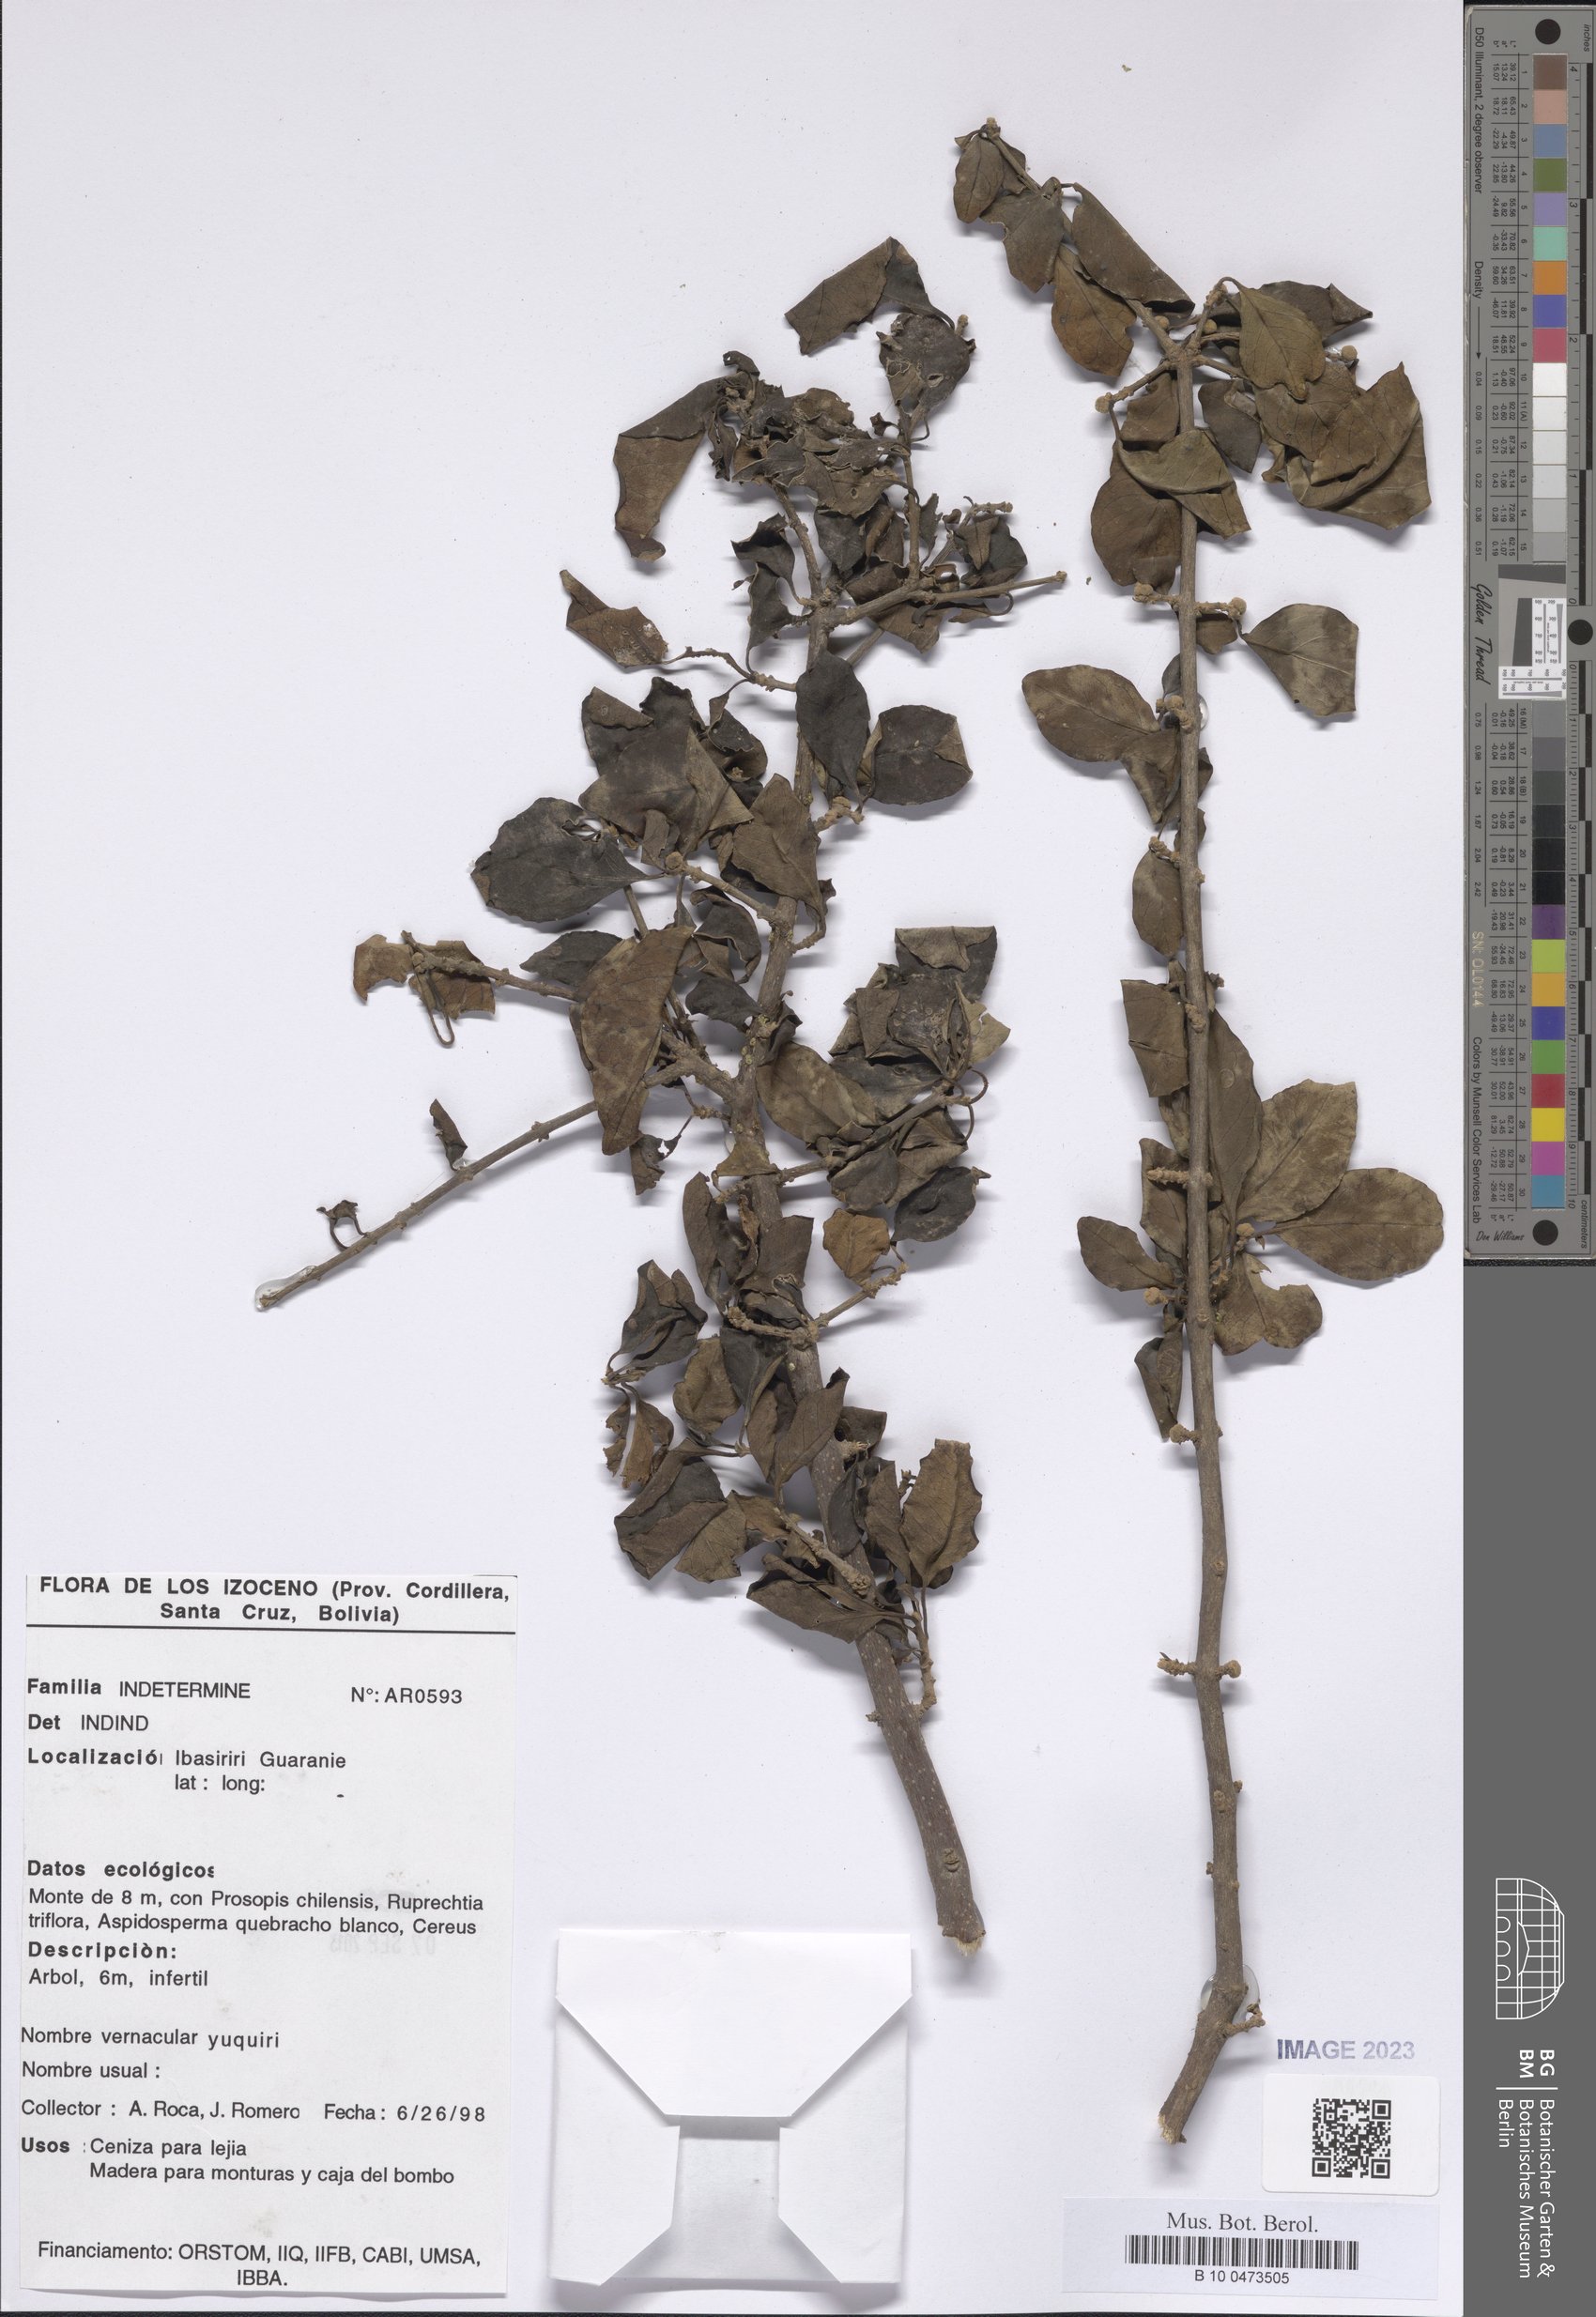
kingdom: Plantae
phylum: Tracheophyta
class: Magnoliopsida
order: Caryophyllales
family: Nyctaginaceae
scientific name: Nyctaginaceae
